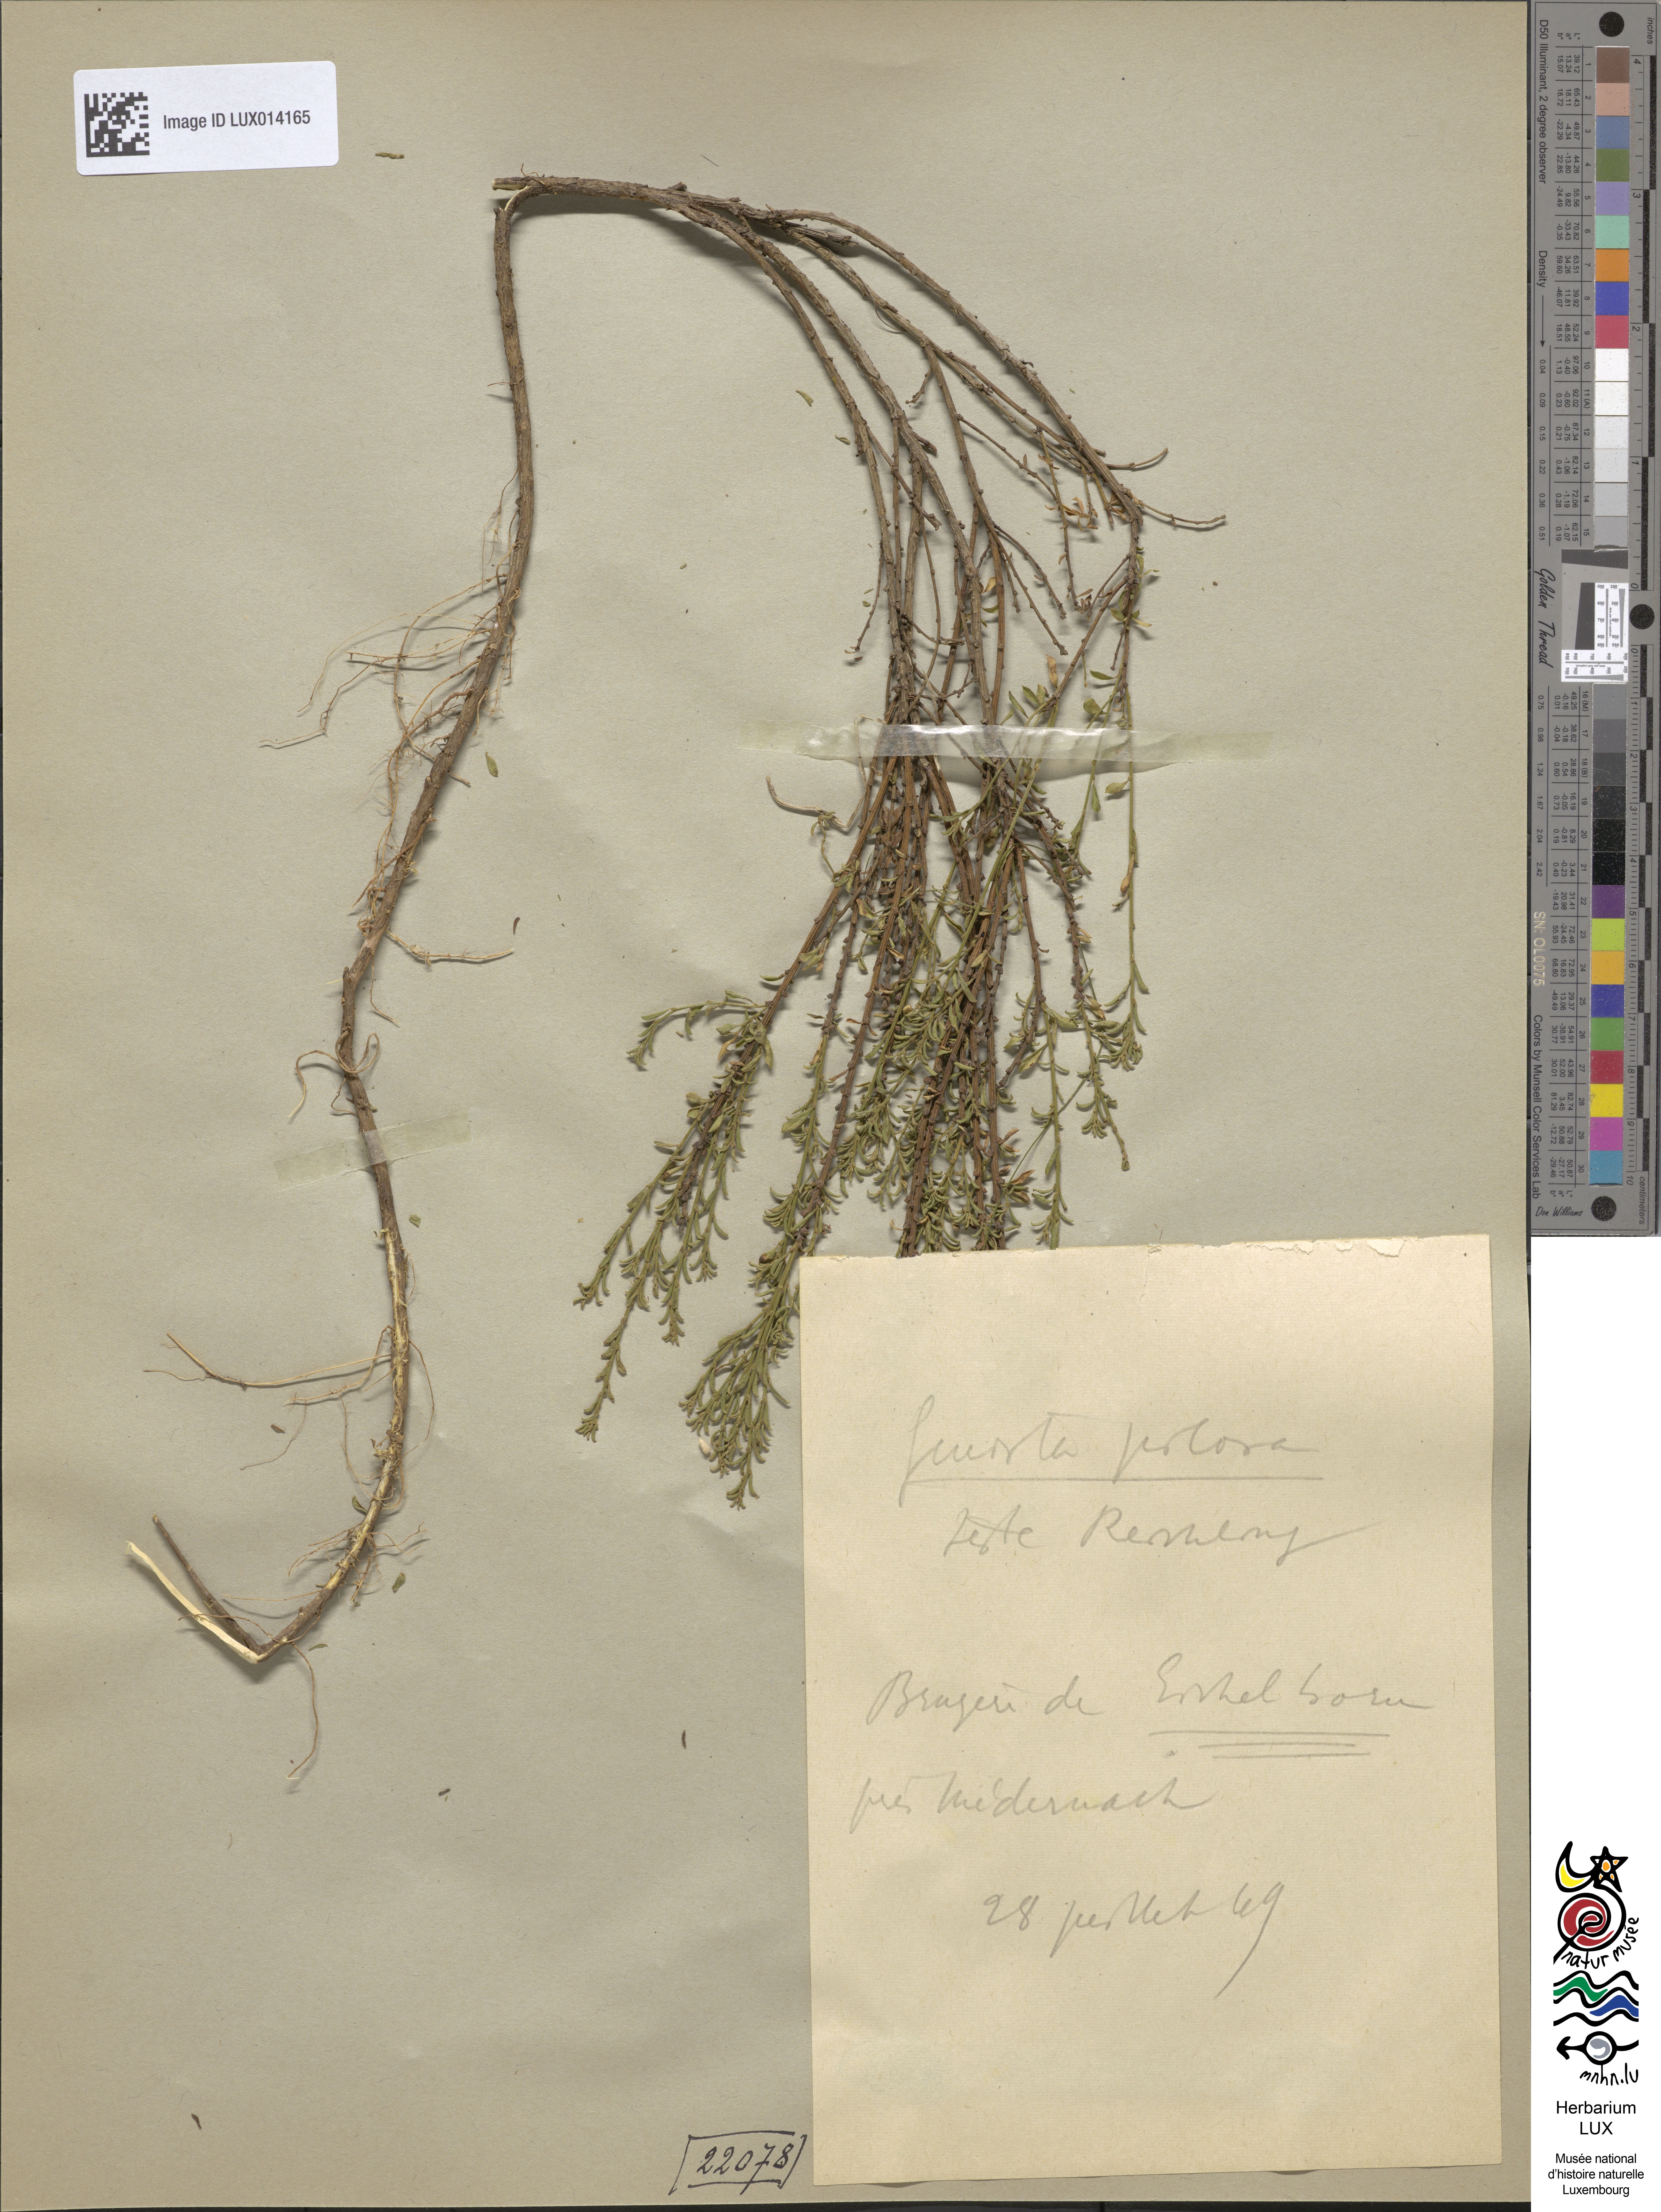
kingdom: Plantae
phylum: Tracheophyta
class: Magnoliopsida
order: Fabales
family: Fabaceae
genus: Genista
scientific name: Genista pilosa
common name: Hairy greenweed
